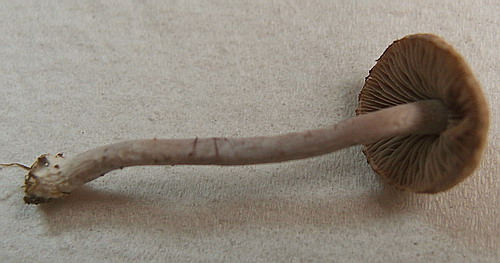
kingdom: Fungi
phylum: Basidiomycota
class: Agaricomycetes
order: Agaricales
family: Inocybaceae
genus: Inocybe
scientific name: Inocybe griseolilacina
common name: lillagrå trævlhat
